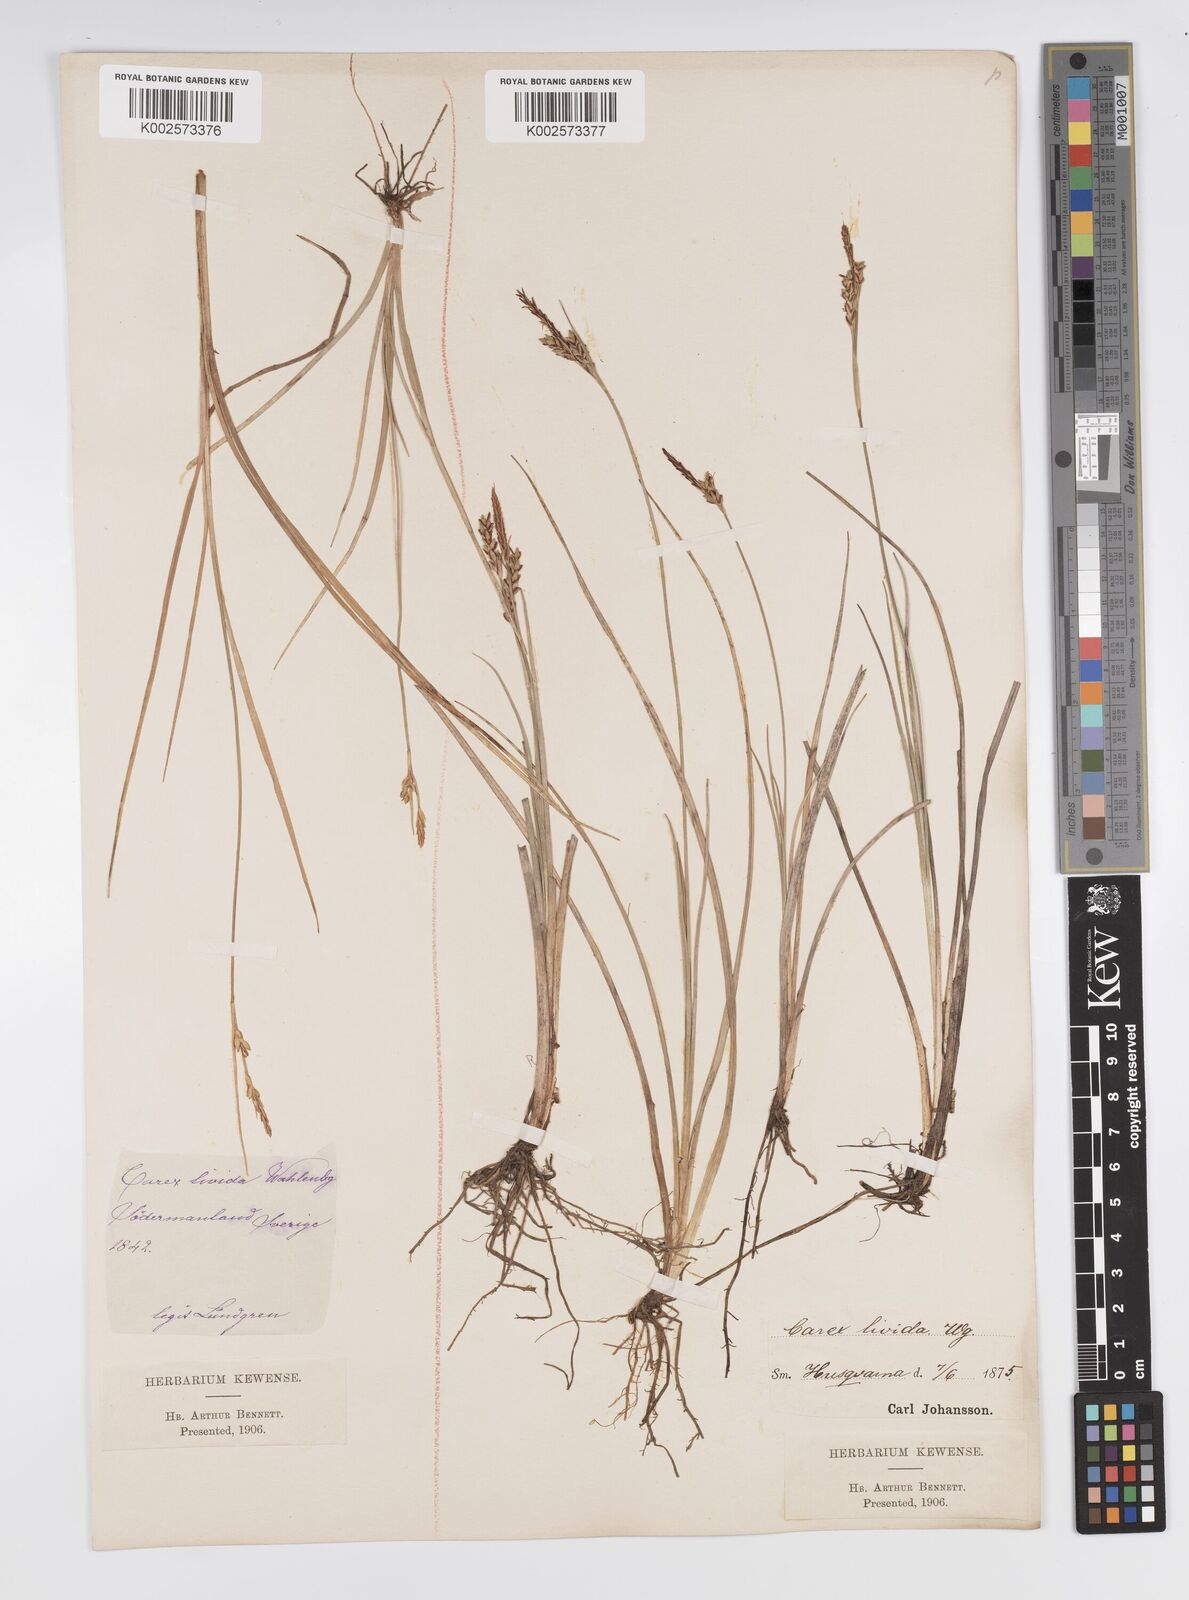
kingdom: Plantae
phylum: Tracheophyta
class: Liliopsida
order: Poales
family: Cyperaceae
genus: Carex
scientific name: Carex livida
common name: Livid sedge
